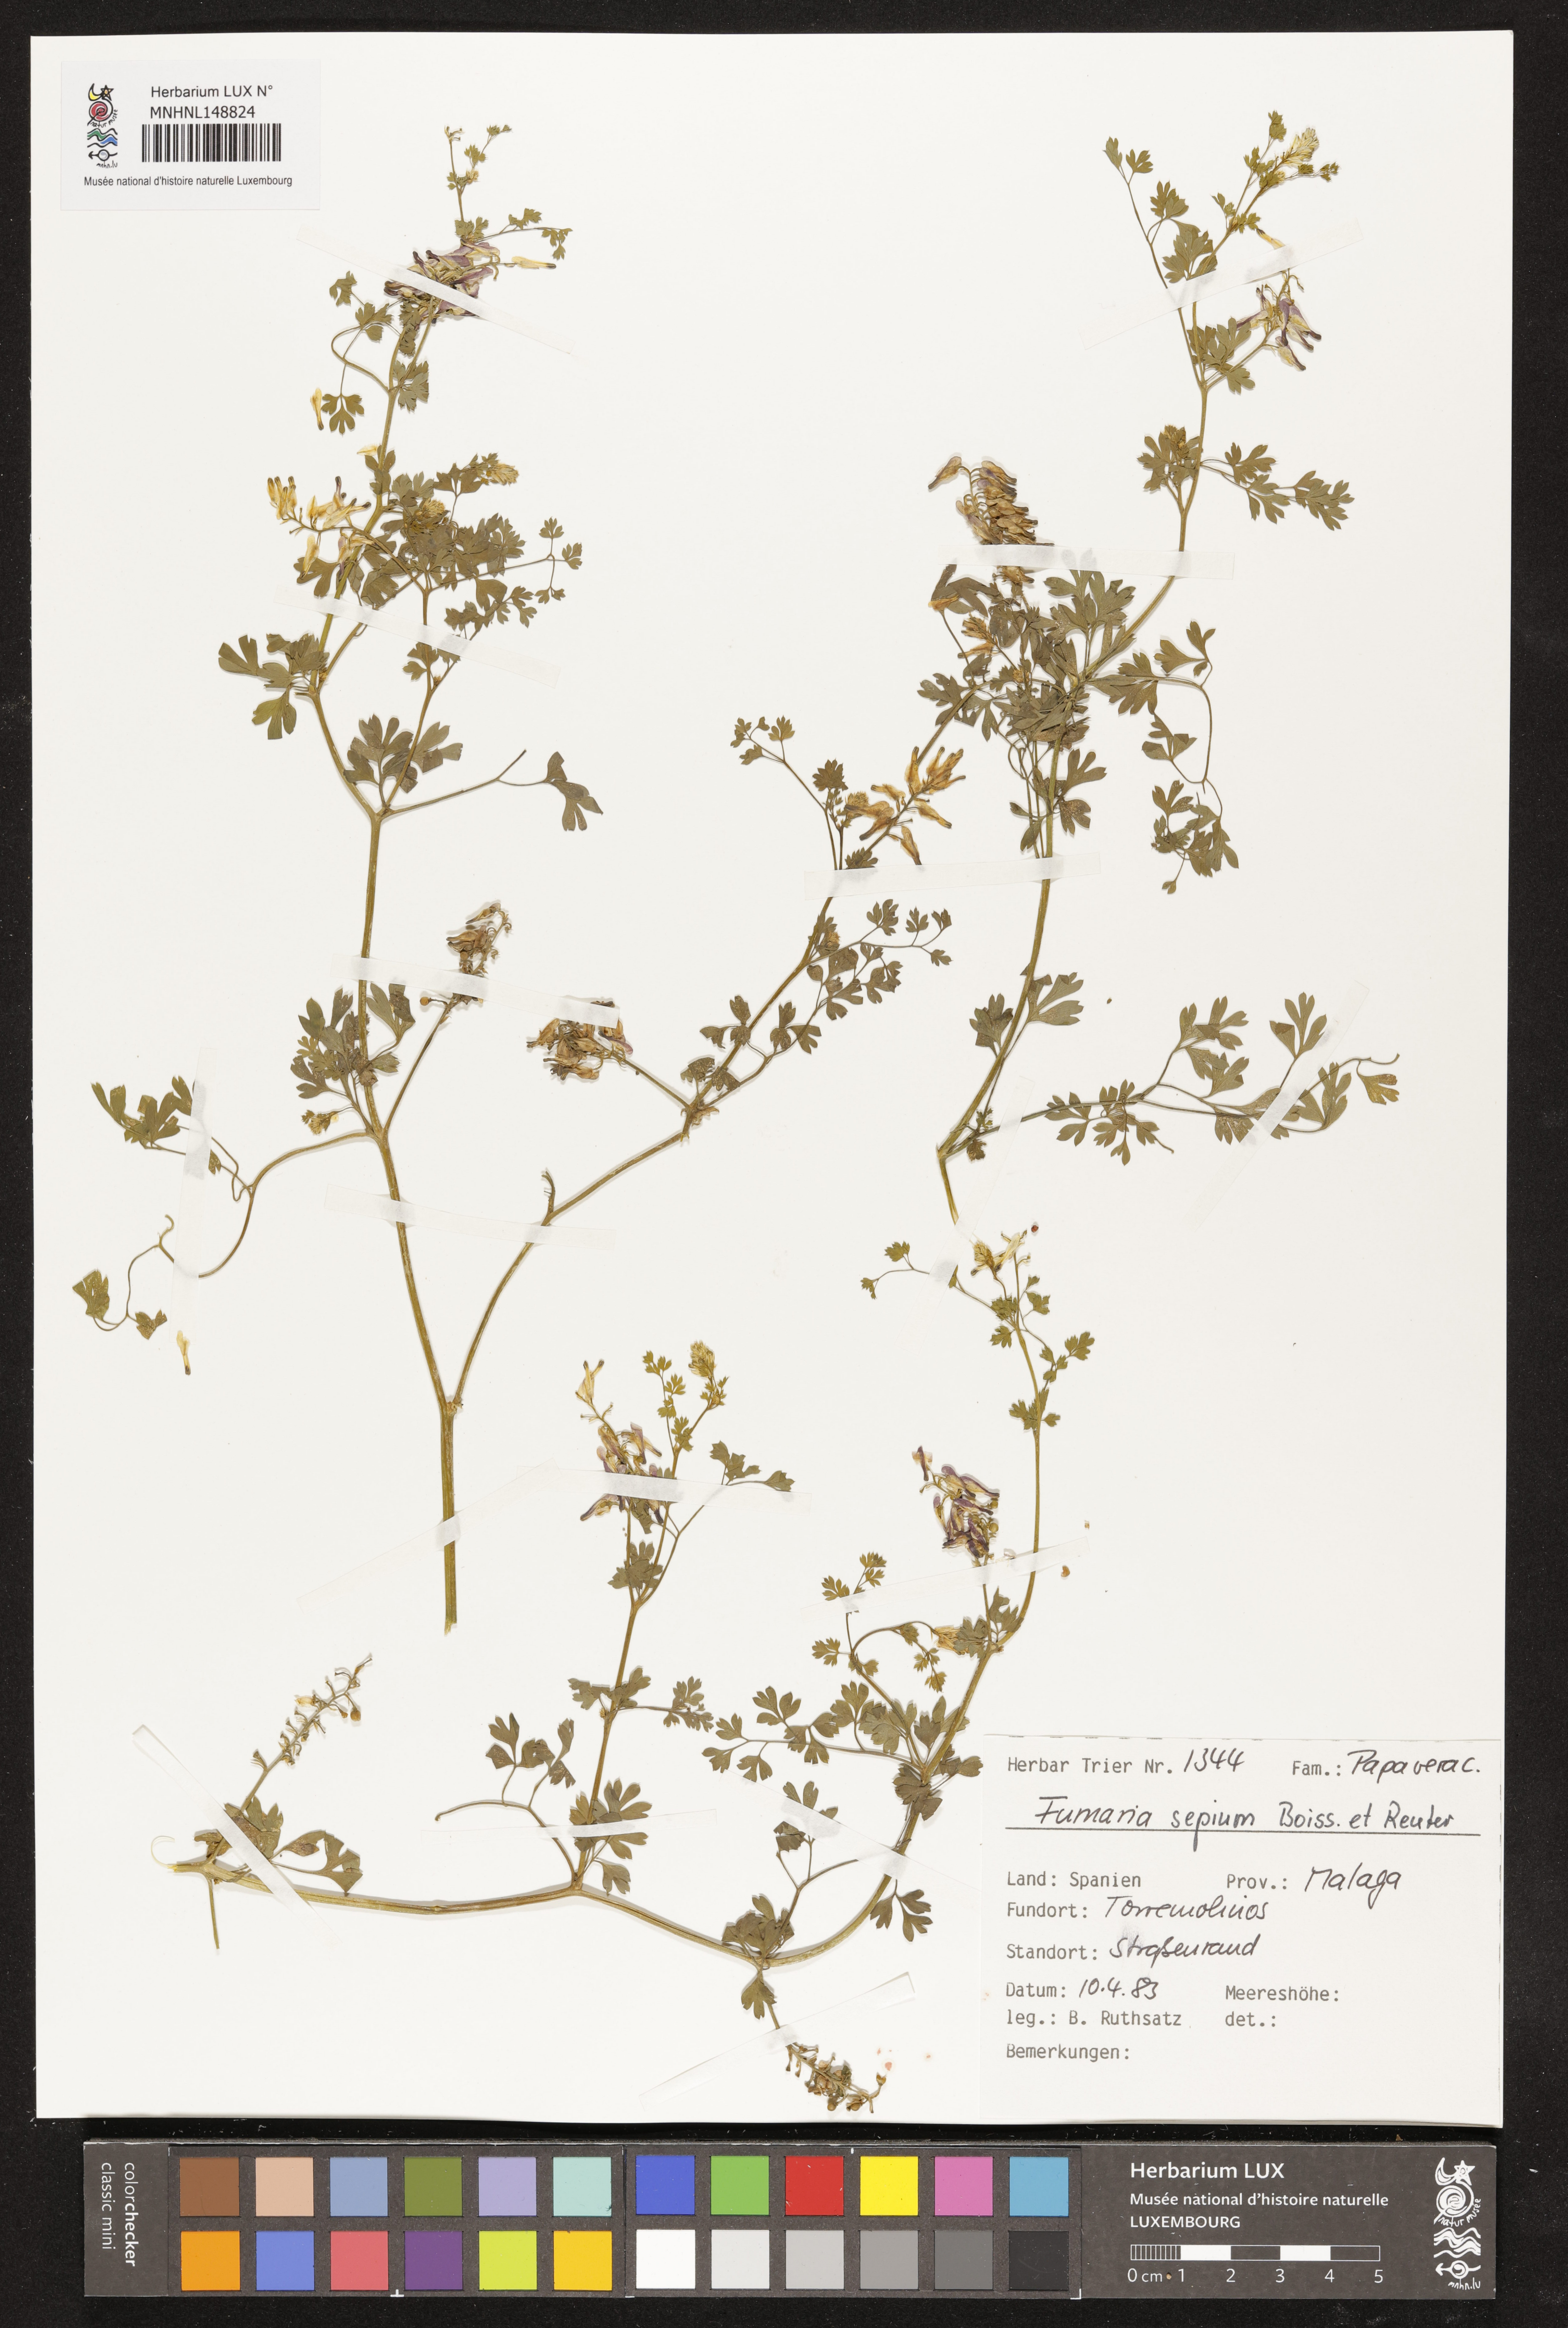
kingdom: Plantae
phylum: Tracheophyta
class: Magnoliopsida
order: Ranunculales
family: Papaveraceae
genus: Fumaria
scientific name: Fumaria sepium
